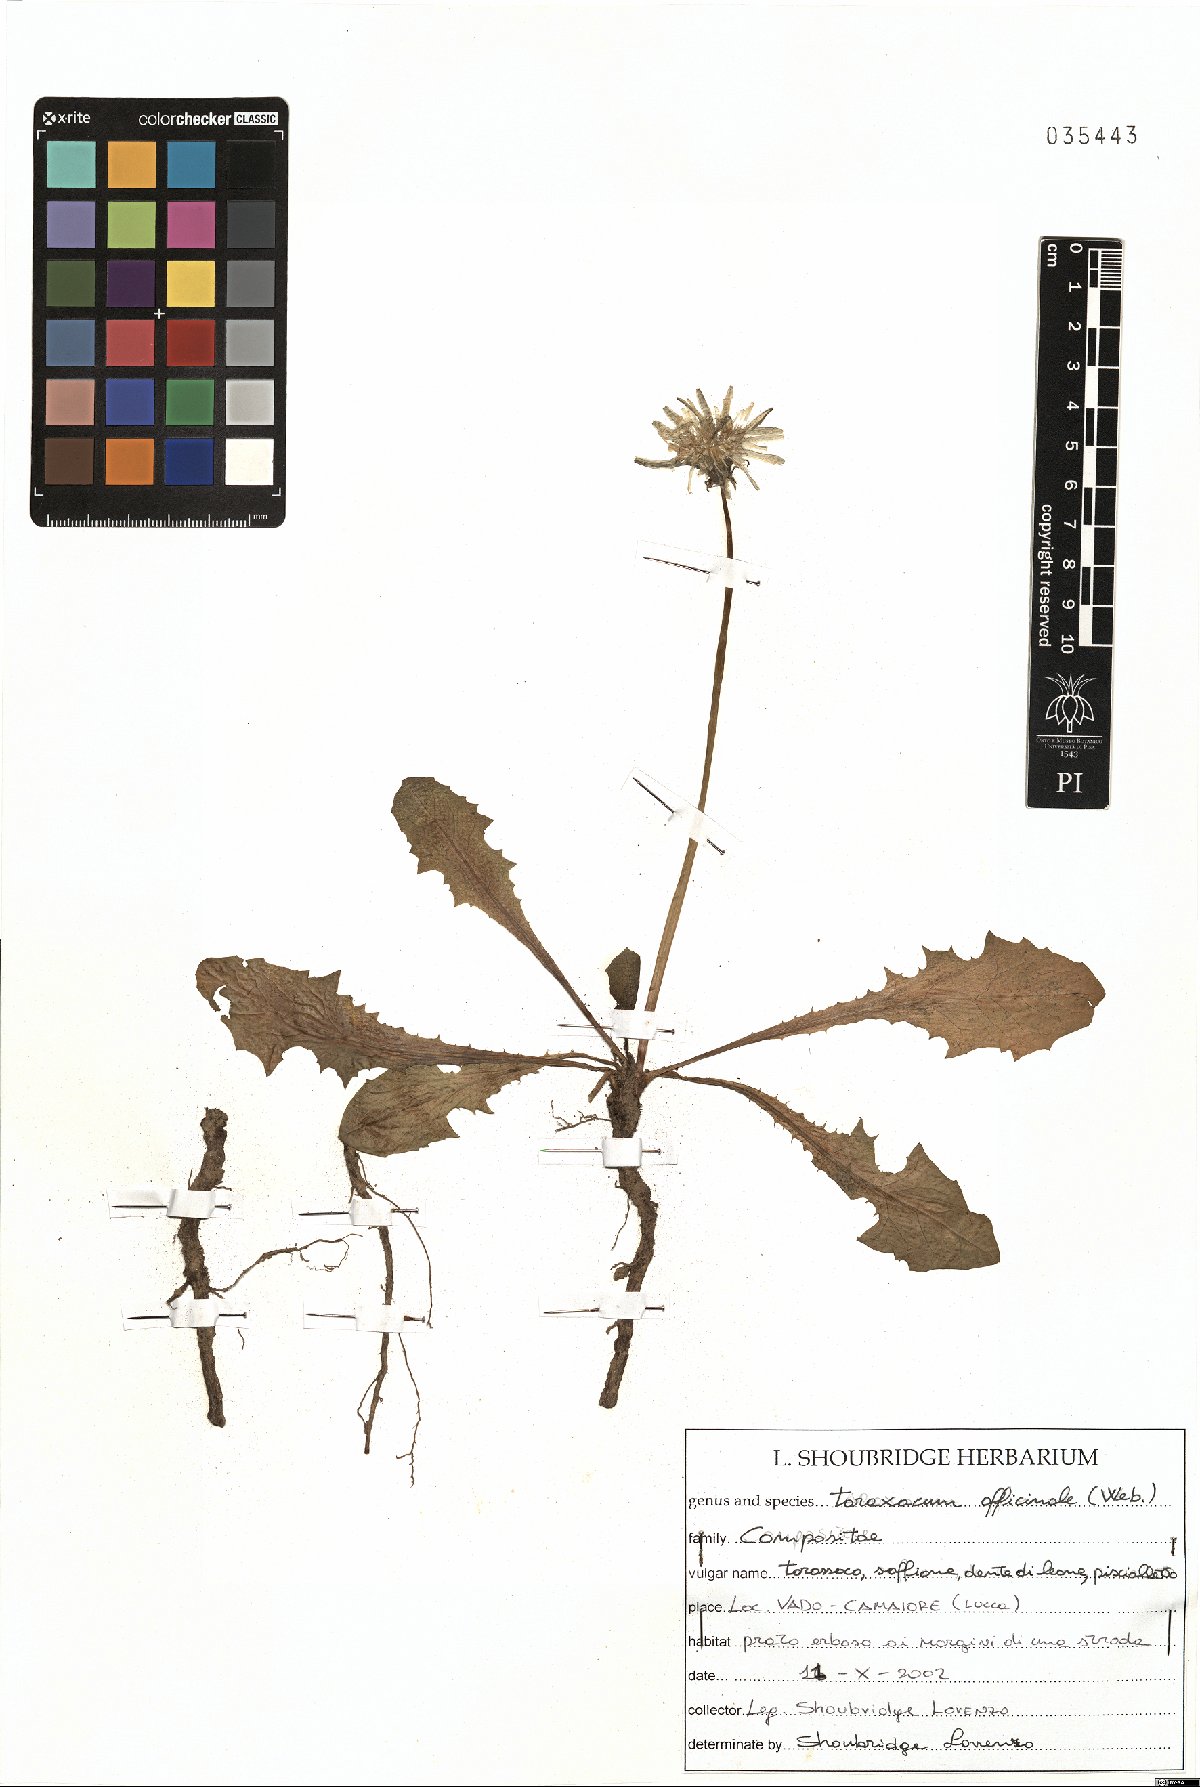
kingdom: Plantae
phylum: Tracheophyta
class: Magnoliopsida
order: Asterales
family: Asteraceae
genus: Taraxacum
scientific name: Taraxacum officinale
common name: Common dandelion
